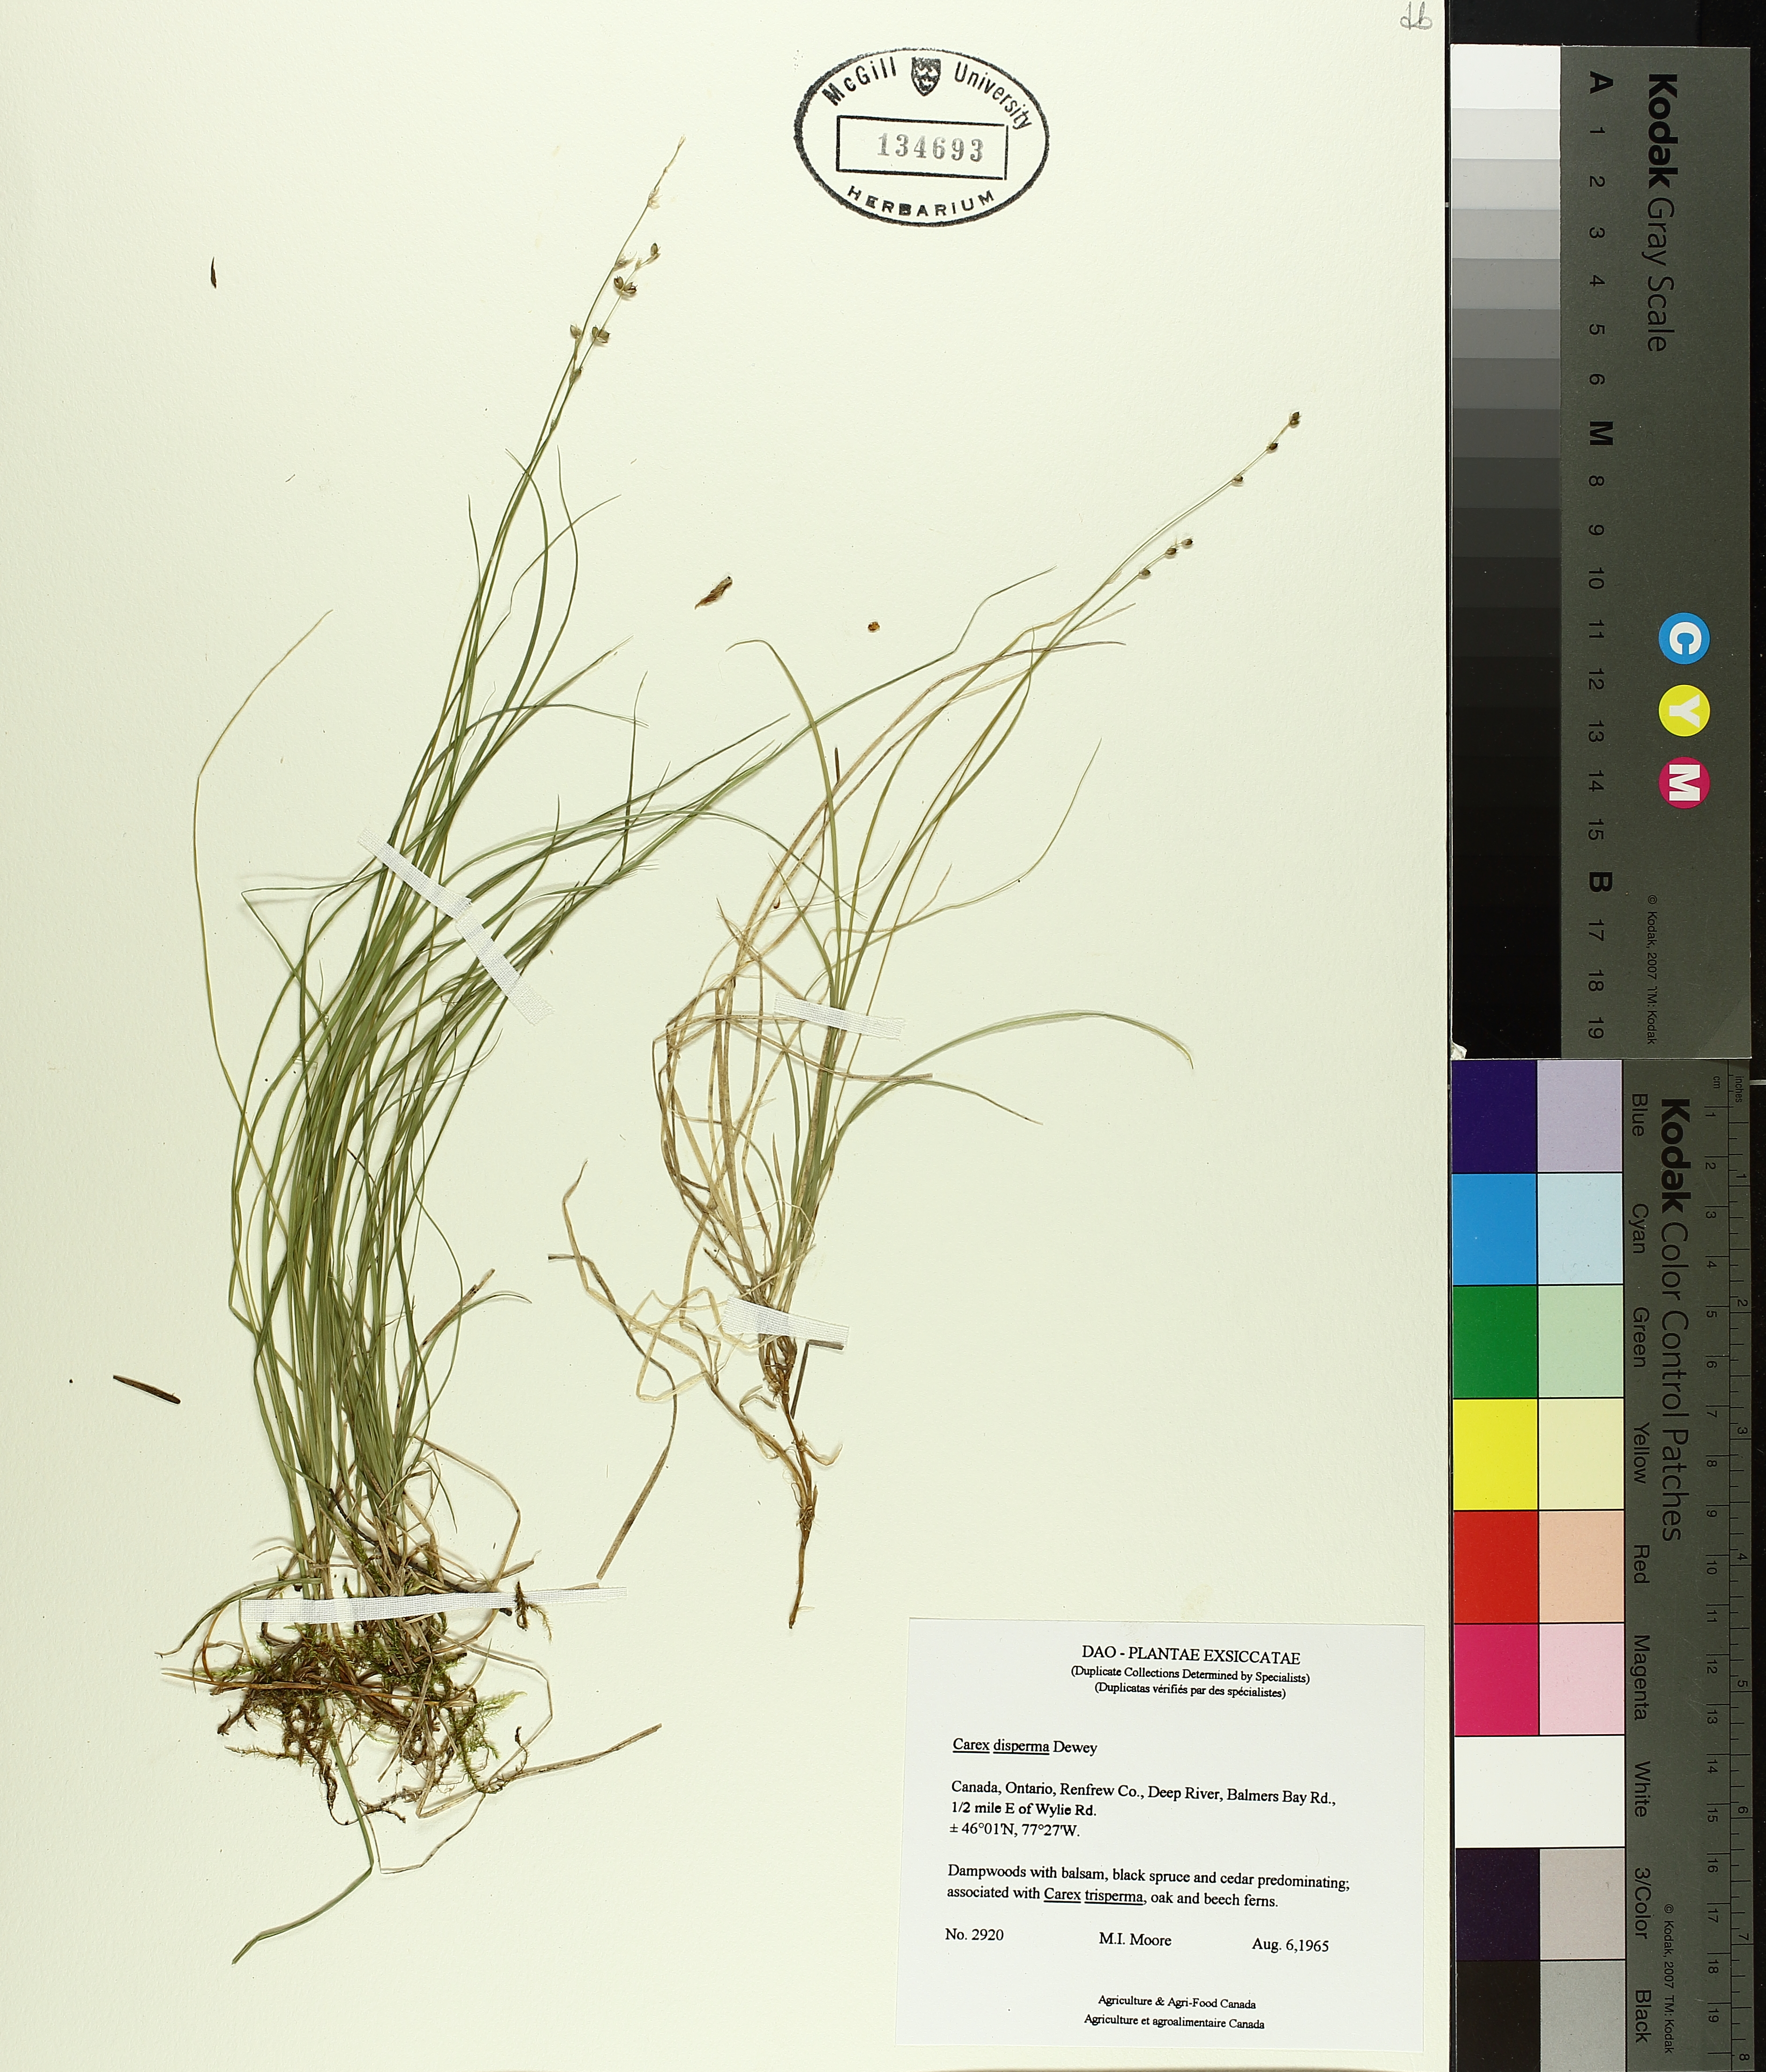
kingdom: Plantae
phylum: Tracheophyta
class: Liliopsida
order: Poales
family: Cyperaceae
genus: Carex
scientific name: Carex disperma
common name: Short-leaved sedge
